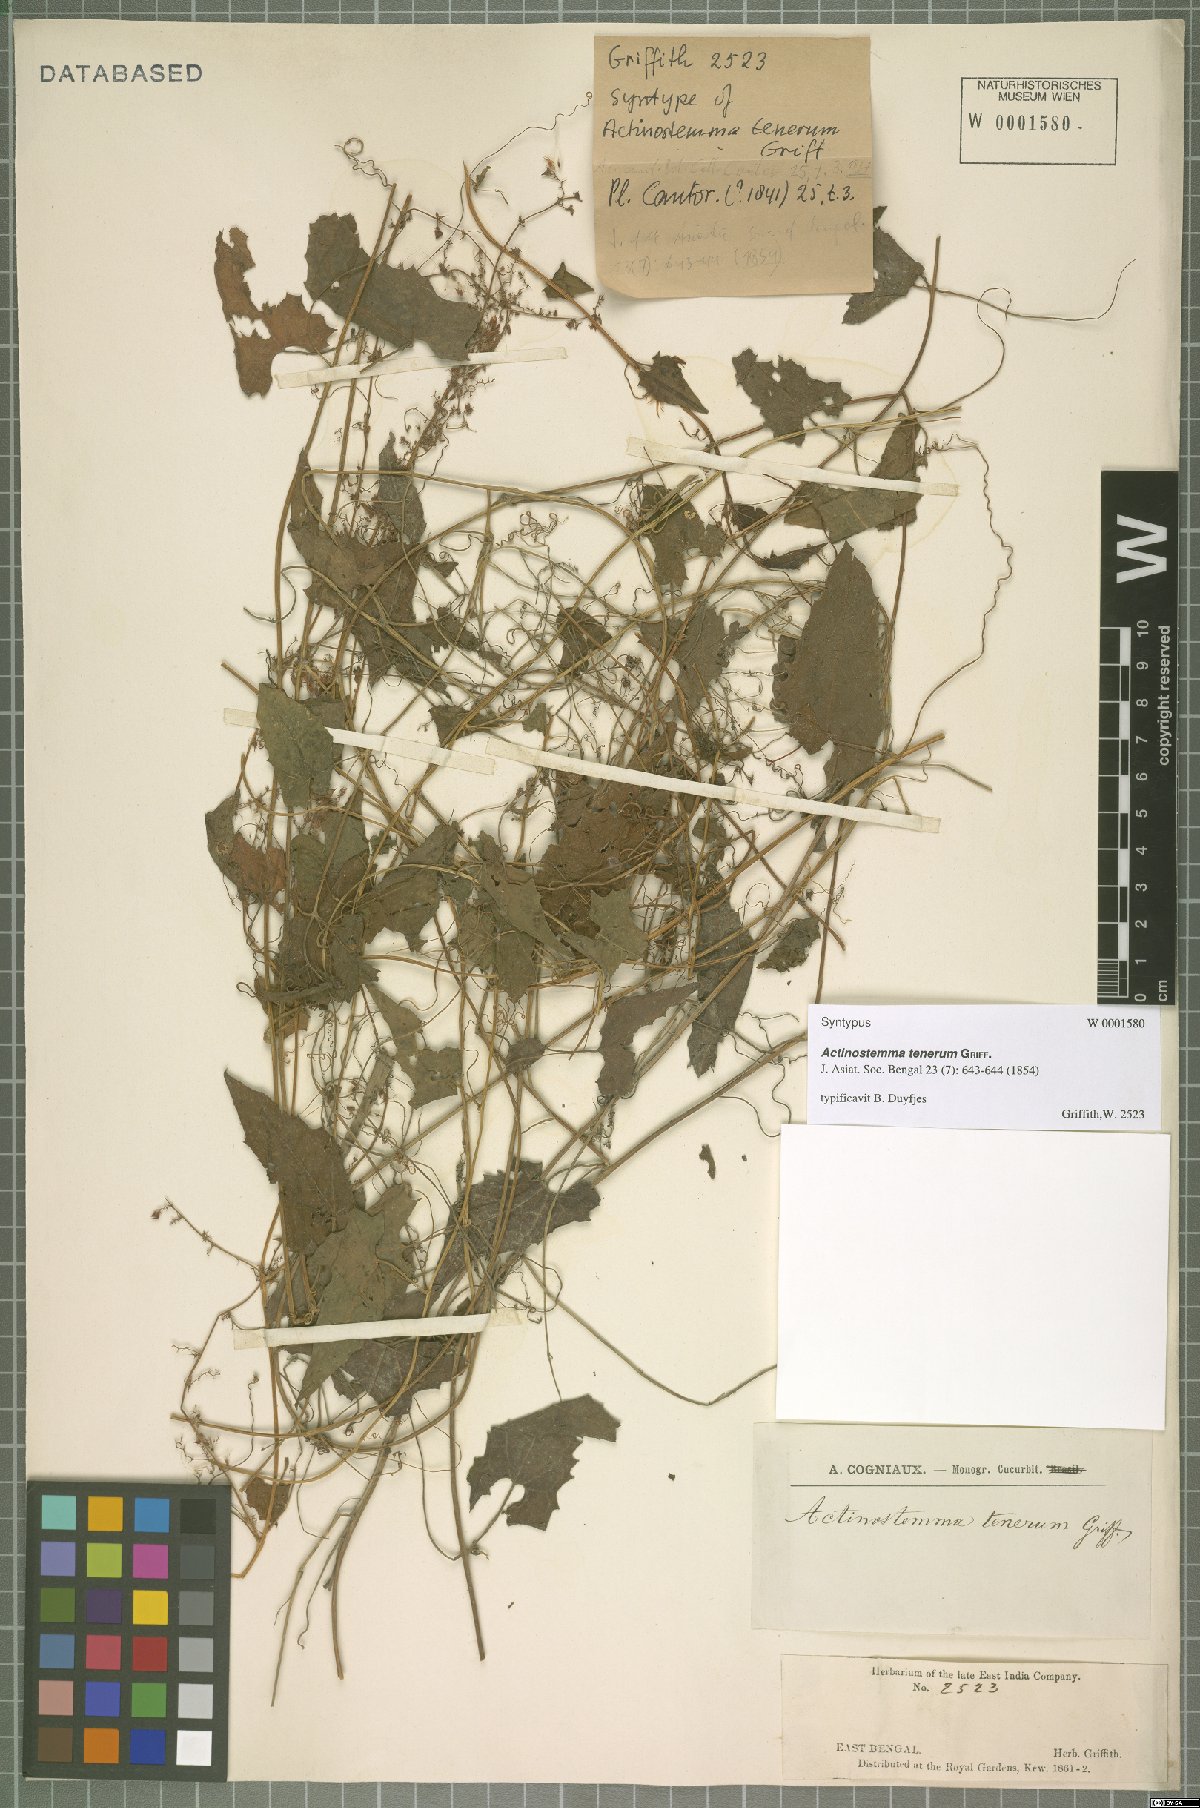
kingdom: Plantae
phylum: Tracheophyta
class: Magnoliopsida
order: Cucurbitales
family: Cucurbitaceae
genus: Actinostemma
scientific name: Actinostemma tenerum
